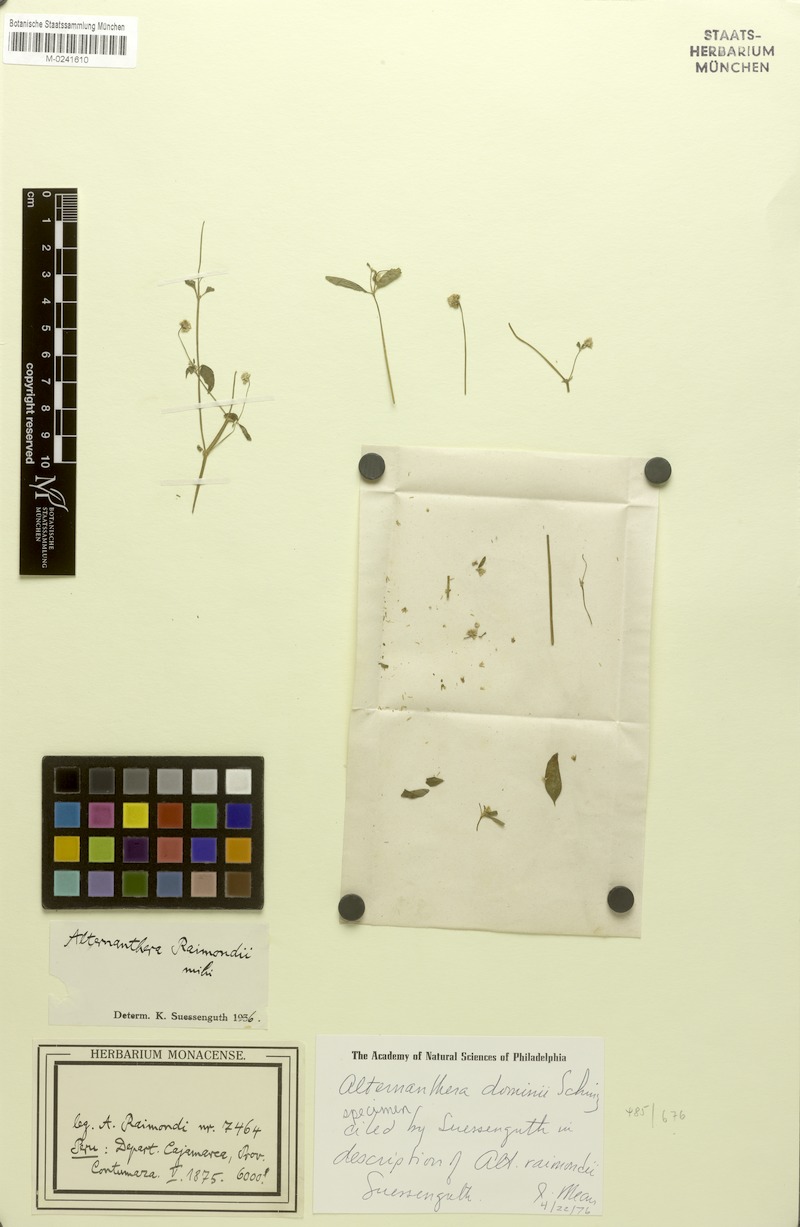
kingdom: Plantae
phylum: Tracheophyta
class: Magnoliopsida
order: Caryophyllales
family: Amaranthaceae
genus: Alternanthera
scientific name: Alternanthera dominii
